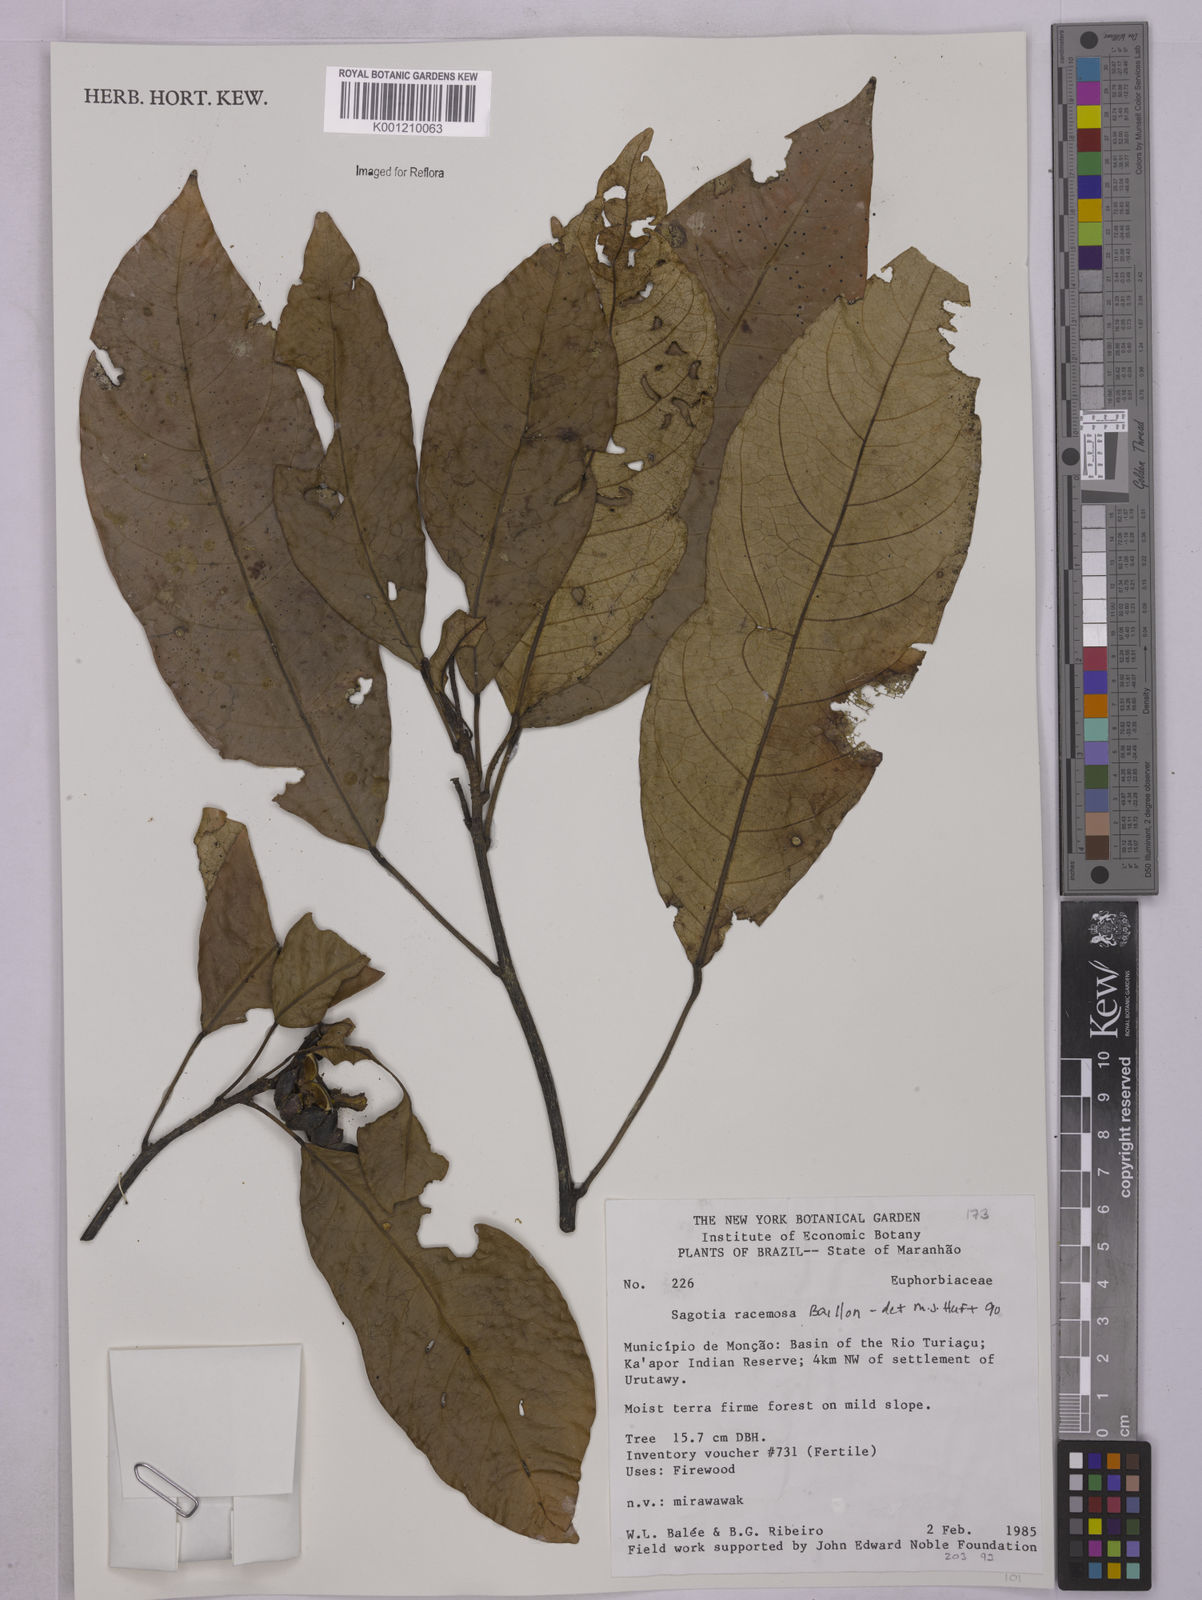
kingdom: Plantae
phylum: Tracheophyta
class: Magnoliopsida
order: Malpighiales
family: Euphorbiaceae
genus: Sagotia
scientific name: Sagotia racemosa
